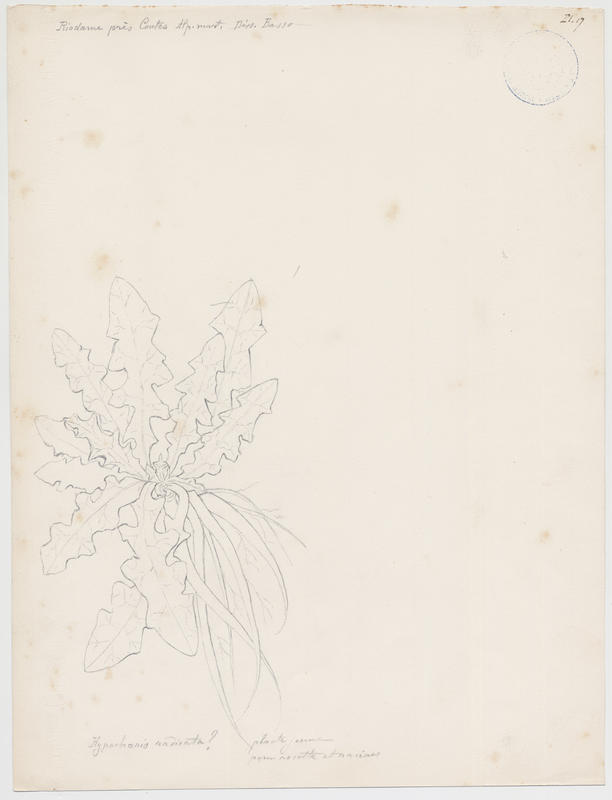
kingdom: Plantae
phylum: Tracheophyta
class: Magnoliopsida
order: Asterales
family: Asteraceae
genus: Hypochoeris
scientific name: Hypochoeris radicata
